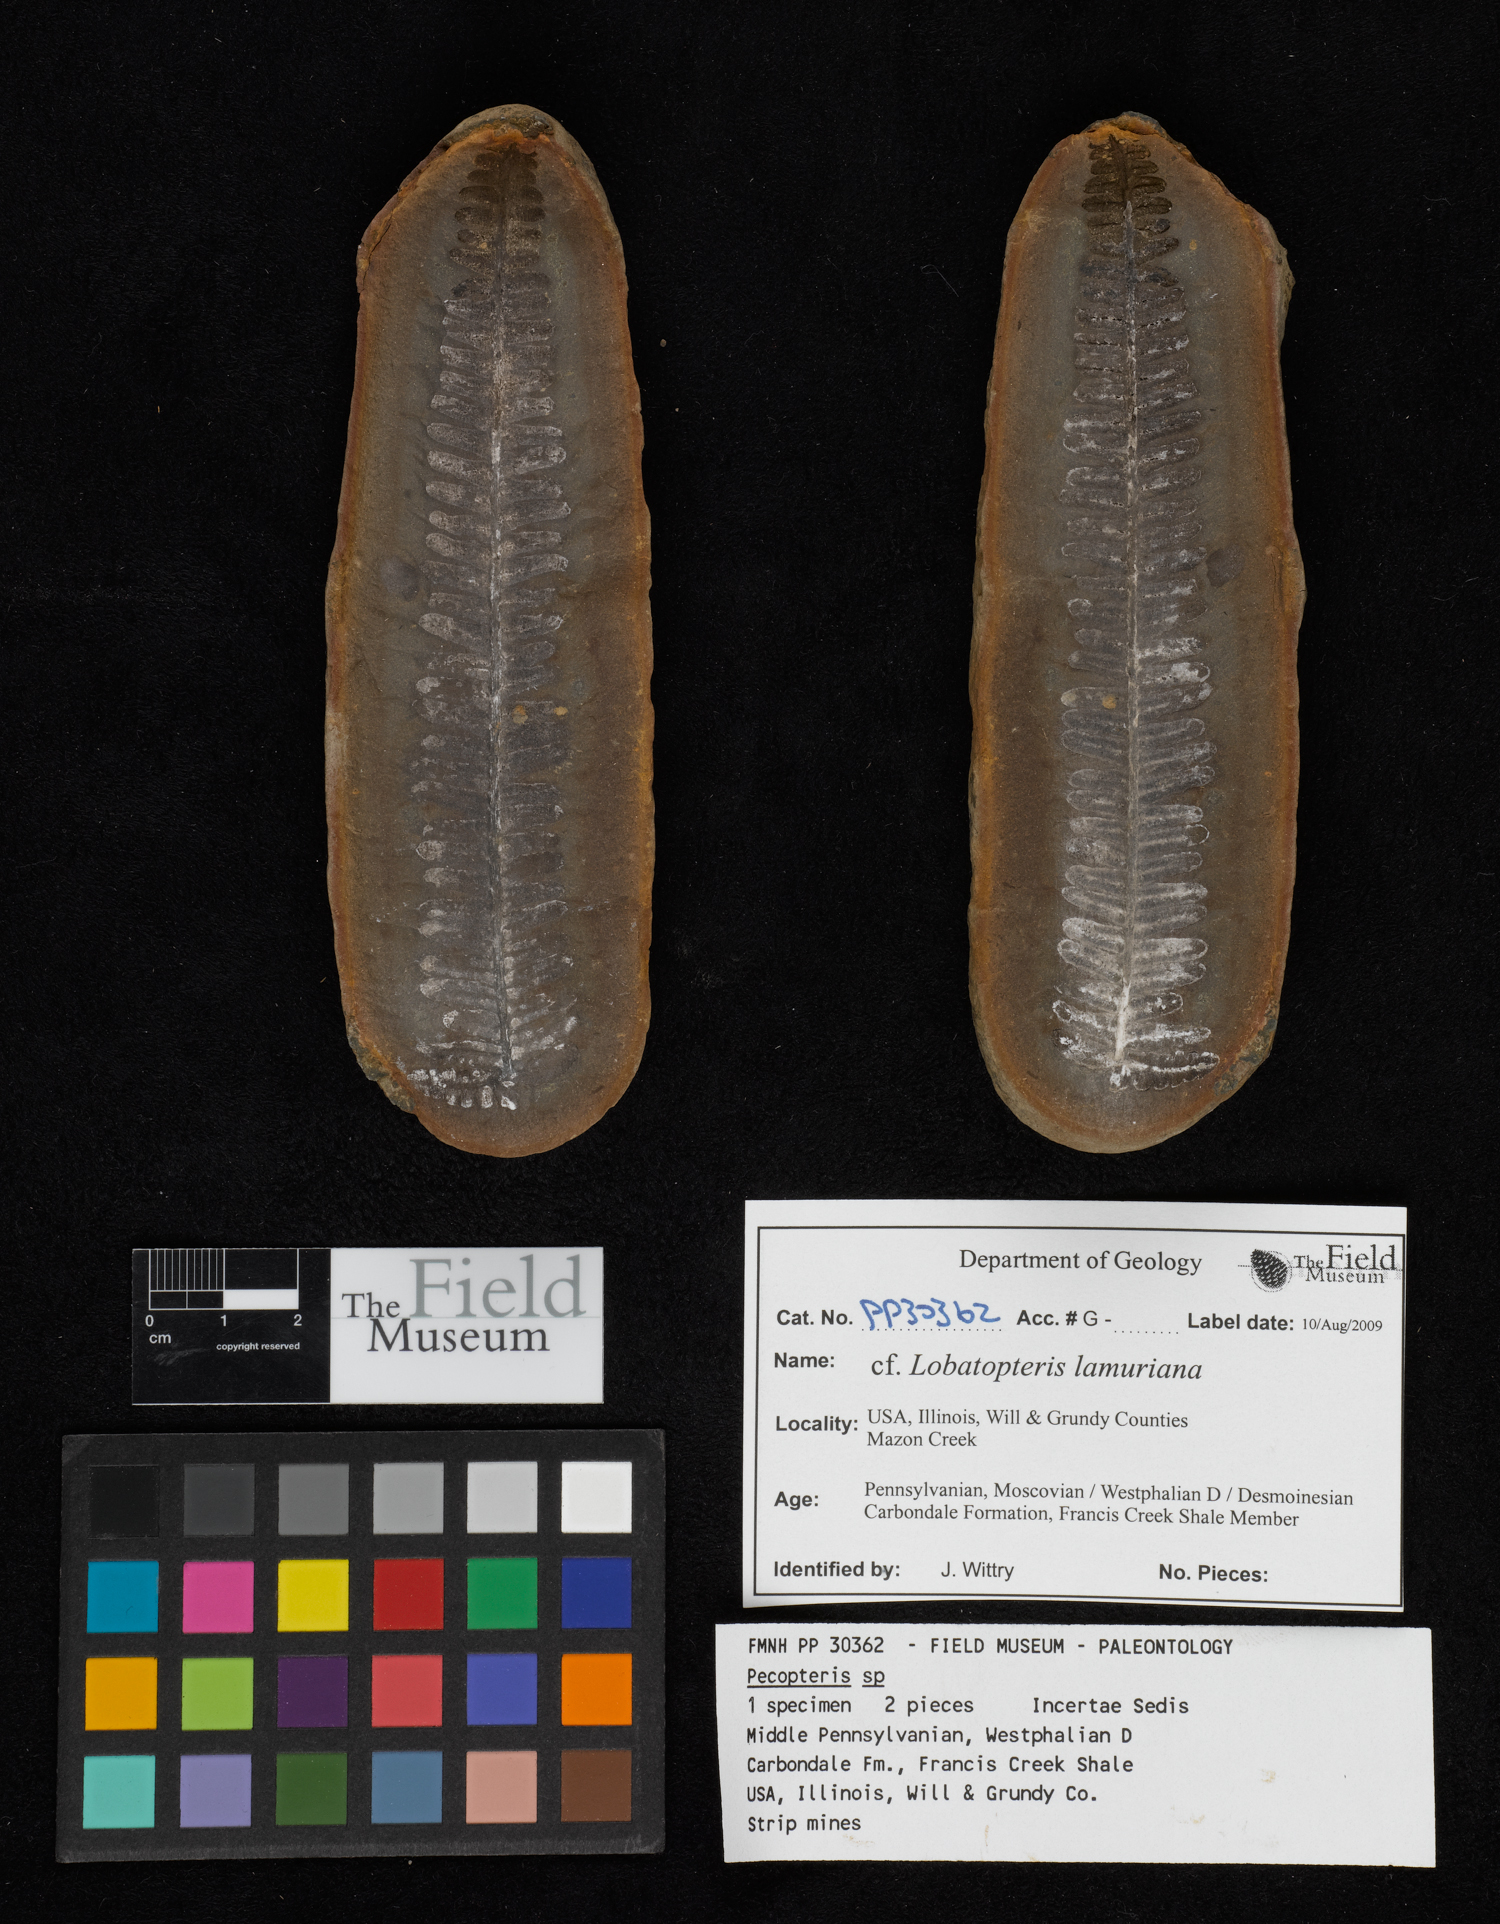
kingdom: Plantae
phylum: Tracheophyta
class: Polypodiopsida
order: Marattiales
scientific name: Marattiales
